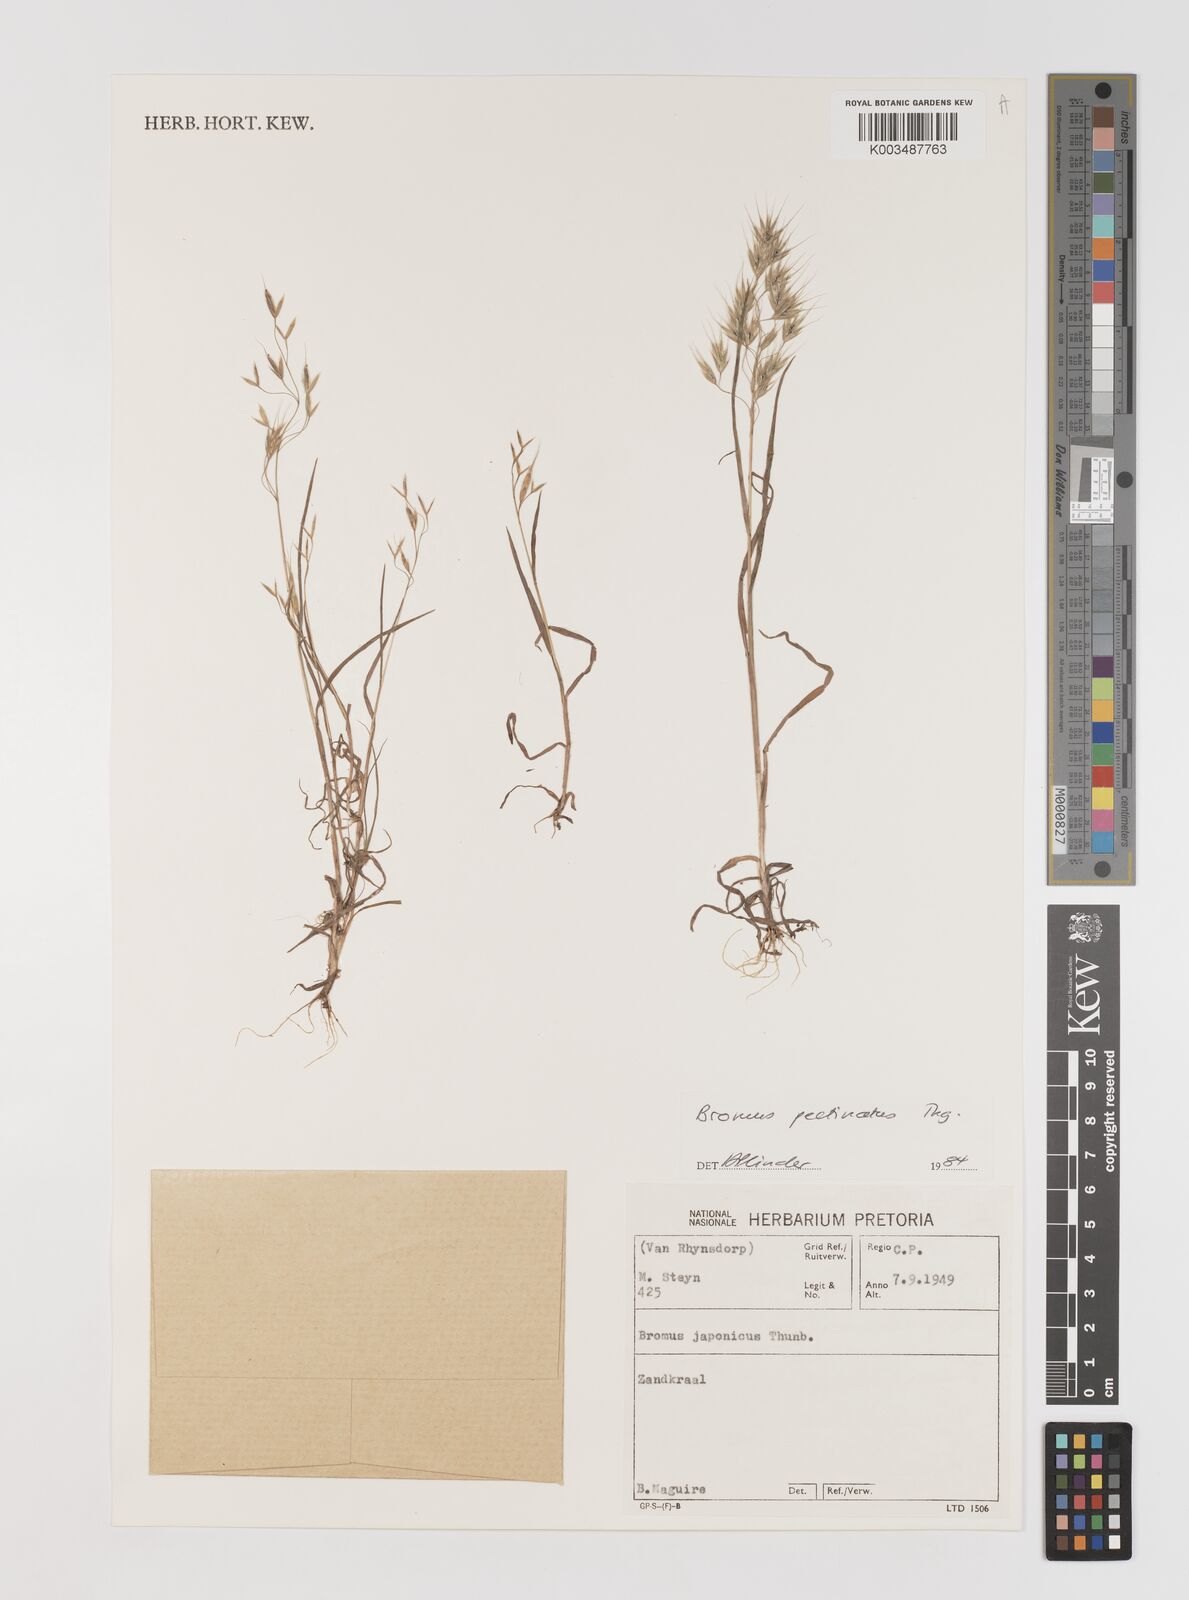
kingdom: Plantae
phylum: Tracheophyta
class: Liliopsida
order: Poales
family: Poaceae
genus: Bromus
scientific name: Bromus pectinatus
